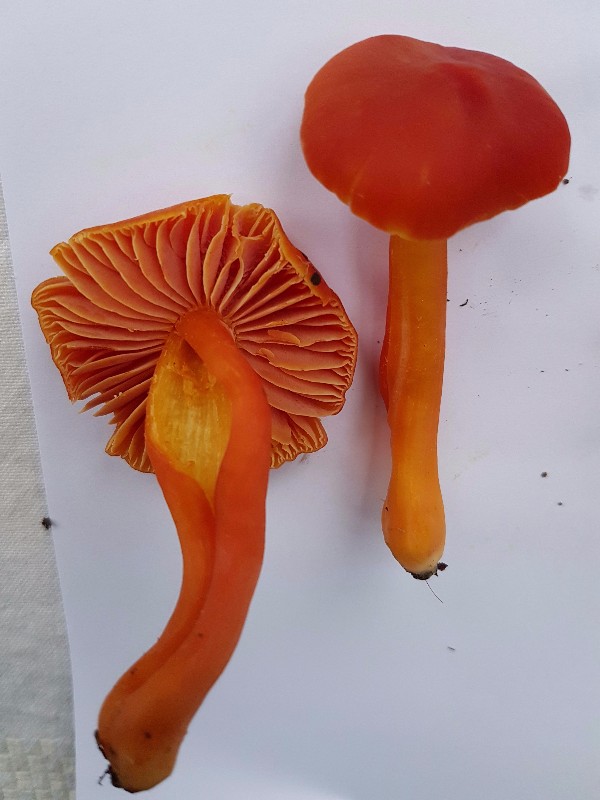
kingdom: Fungi
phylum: Basidiomycota
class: Agaricomycetes
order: Agaricales
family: Hygrophoraceae
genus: Hygrocybe
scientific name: Hygrocybe splendidissima
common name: knaldrød vokshat
